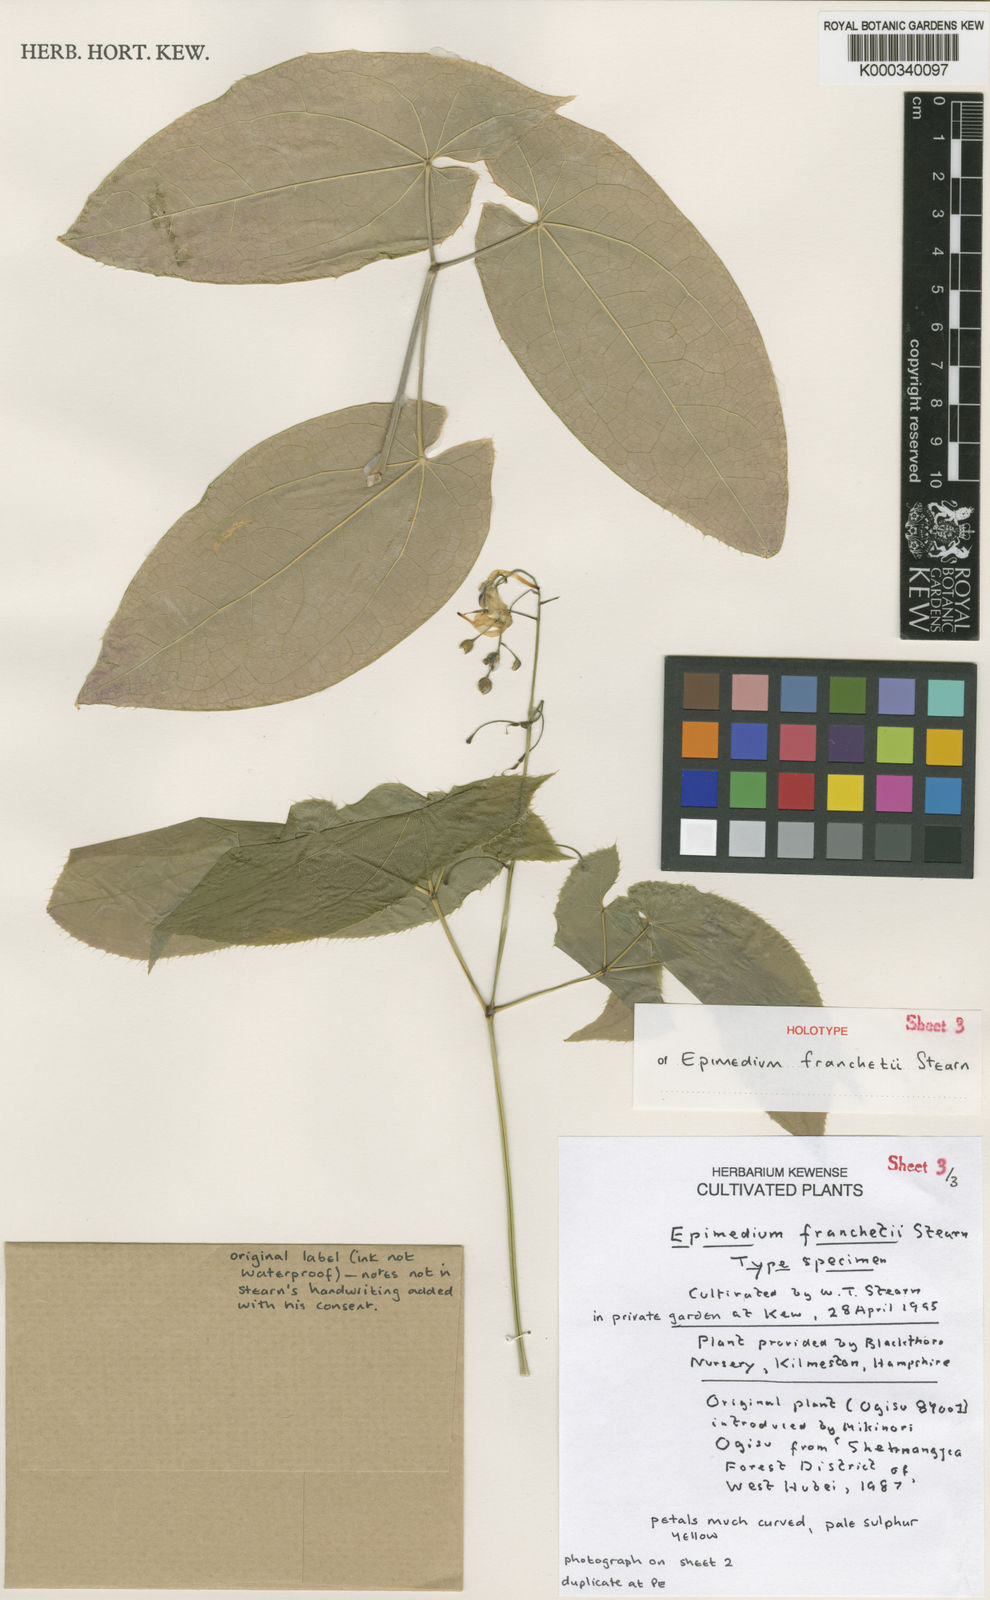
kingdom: Plantae
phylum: Tracheophyta
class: Magnoliopsida
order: Ranunculales
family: Berberidaceae
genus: Epimedium
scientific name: Epimedium franchetii
